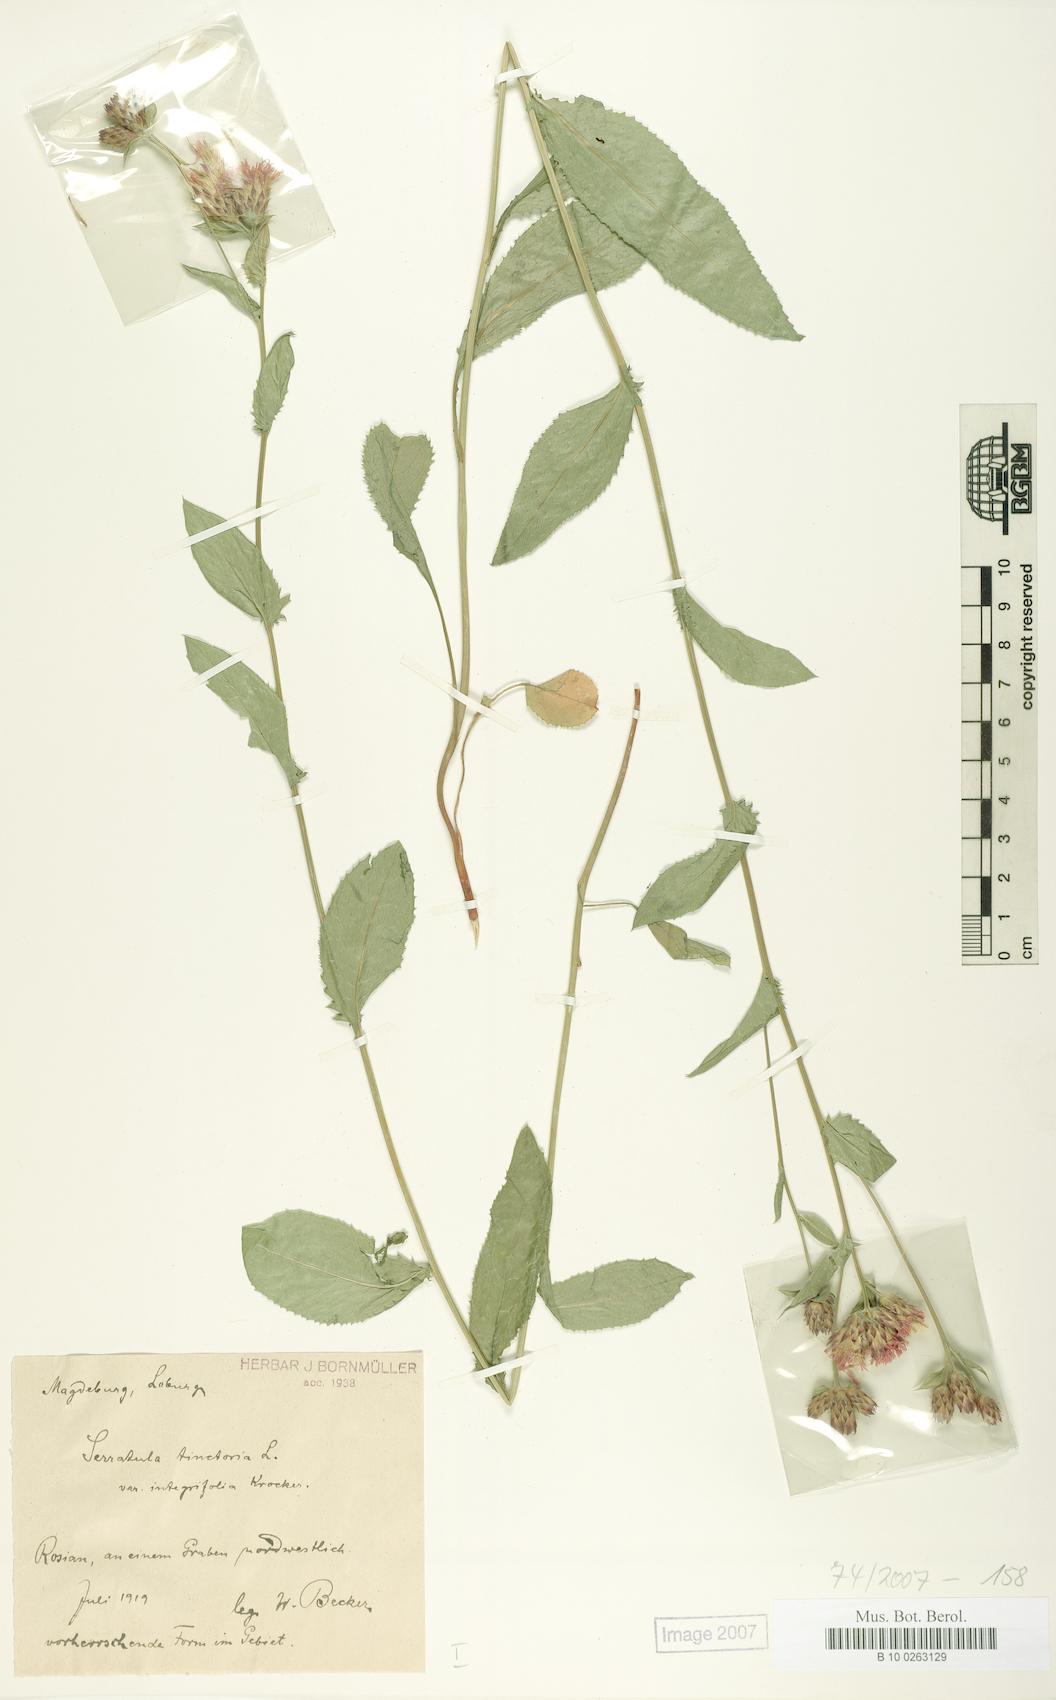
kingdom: Plantae
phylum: Tracheophyta
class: Magnoliopsida
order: Asterales
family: Asteraceae
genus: Serratula
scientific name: Serratula tinctoria
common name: Saw-wort
